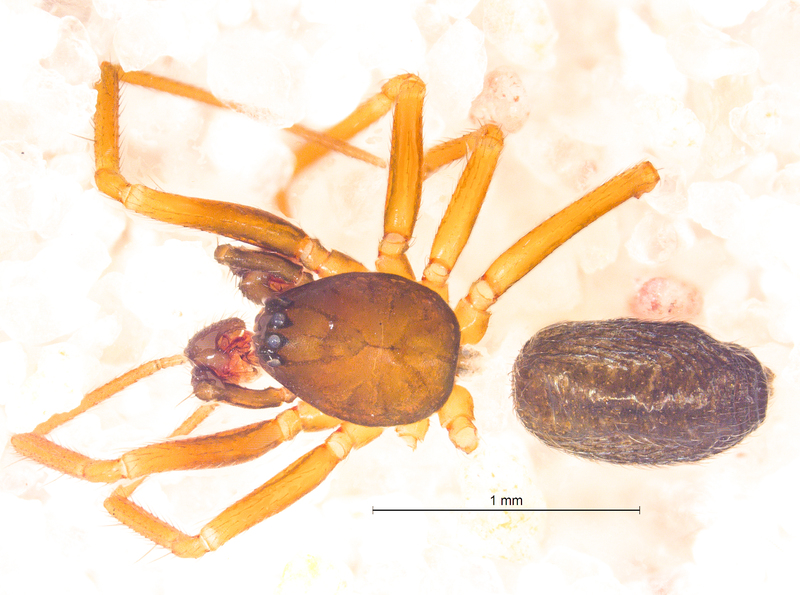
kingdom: Animalia
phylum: Arthropoda
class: Arachnida
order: Araneae
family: Linyphiidae
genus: Agyneta
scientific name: Agyneta affinis
